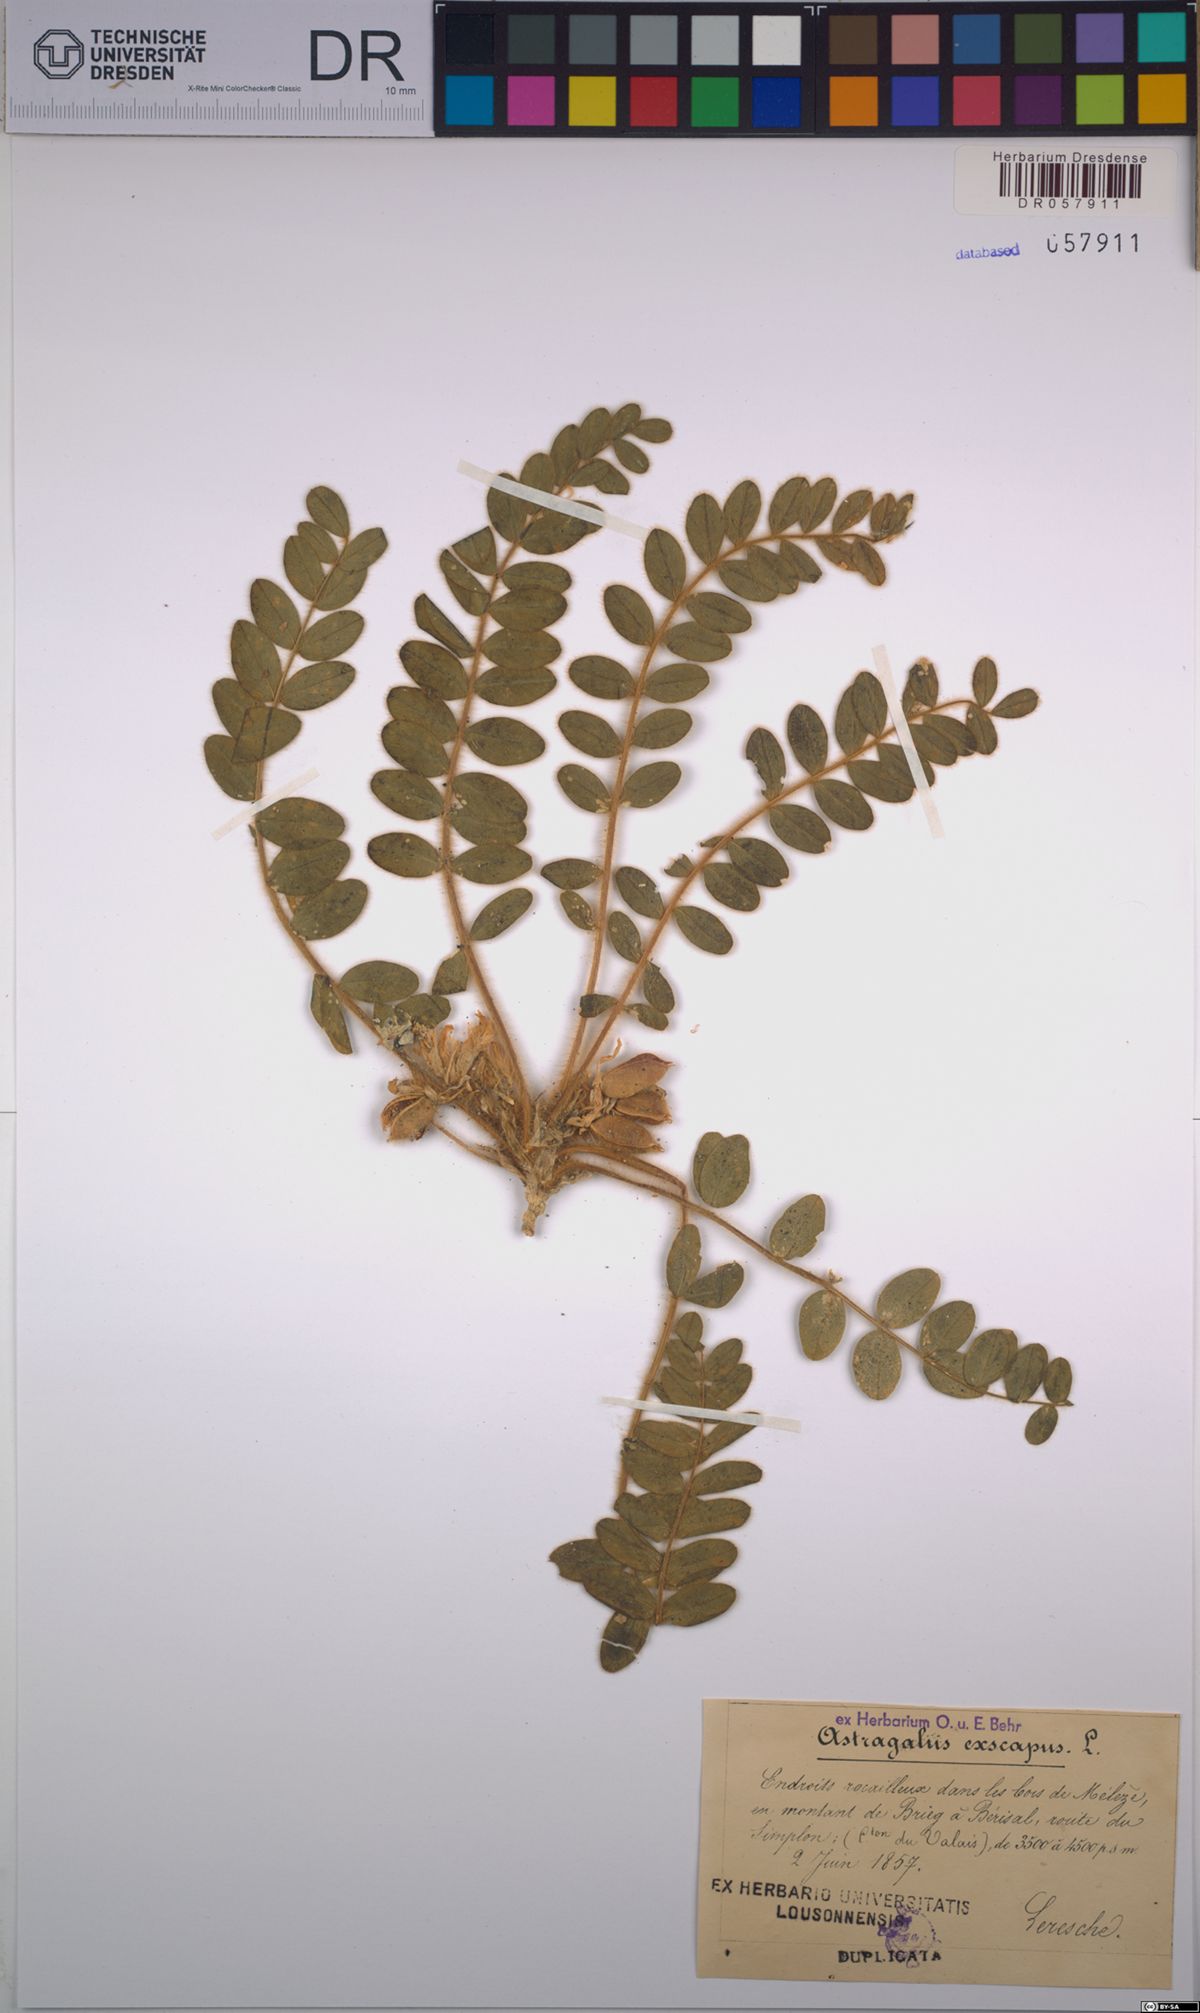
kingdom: Plantae
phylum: Tracheophyta
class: Magnoliopsida
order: Fabales
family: Fabaceae
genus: Astragalus
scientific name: Astragalus exscapus
